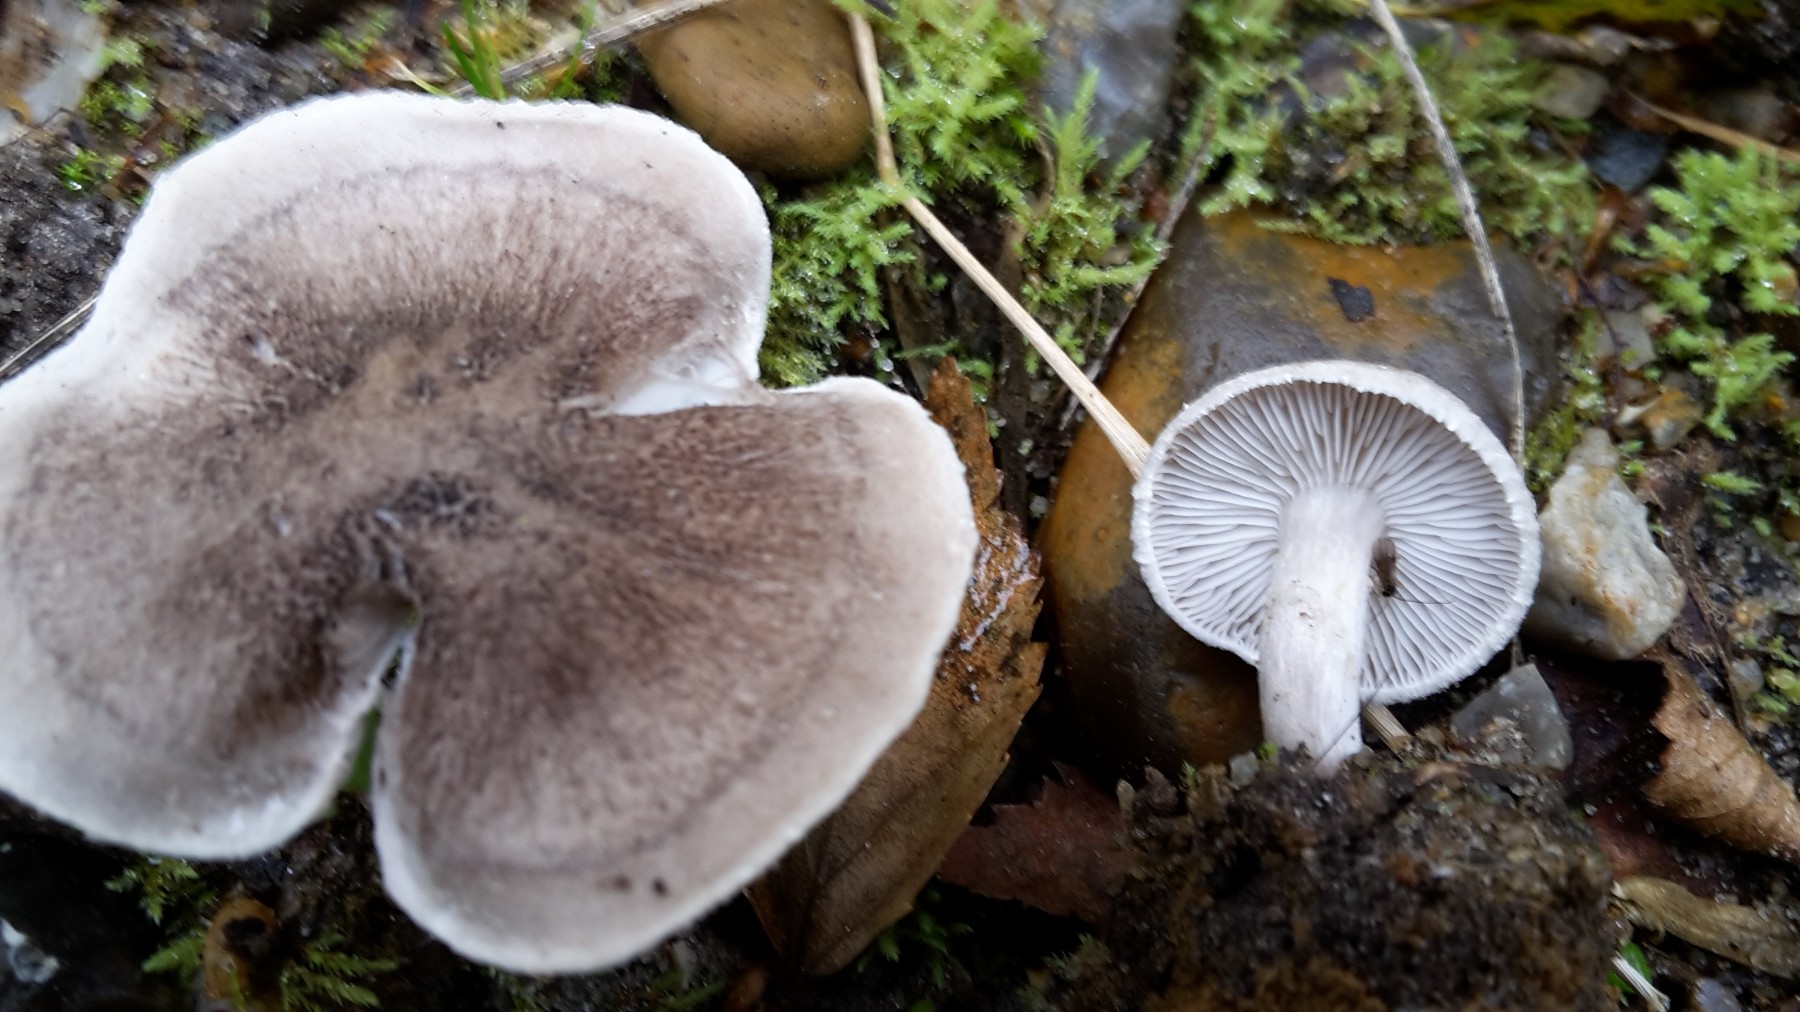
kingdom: Fungi
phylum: Basidiomycota
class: Agaricomycetes
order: Agaricales
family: Tricholomataceae
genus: Tricholoma
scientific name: Tricholoma argyraceum
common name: slør-ridderhat
